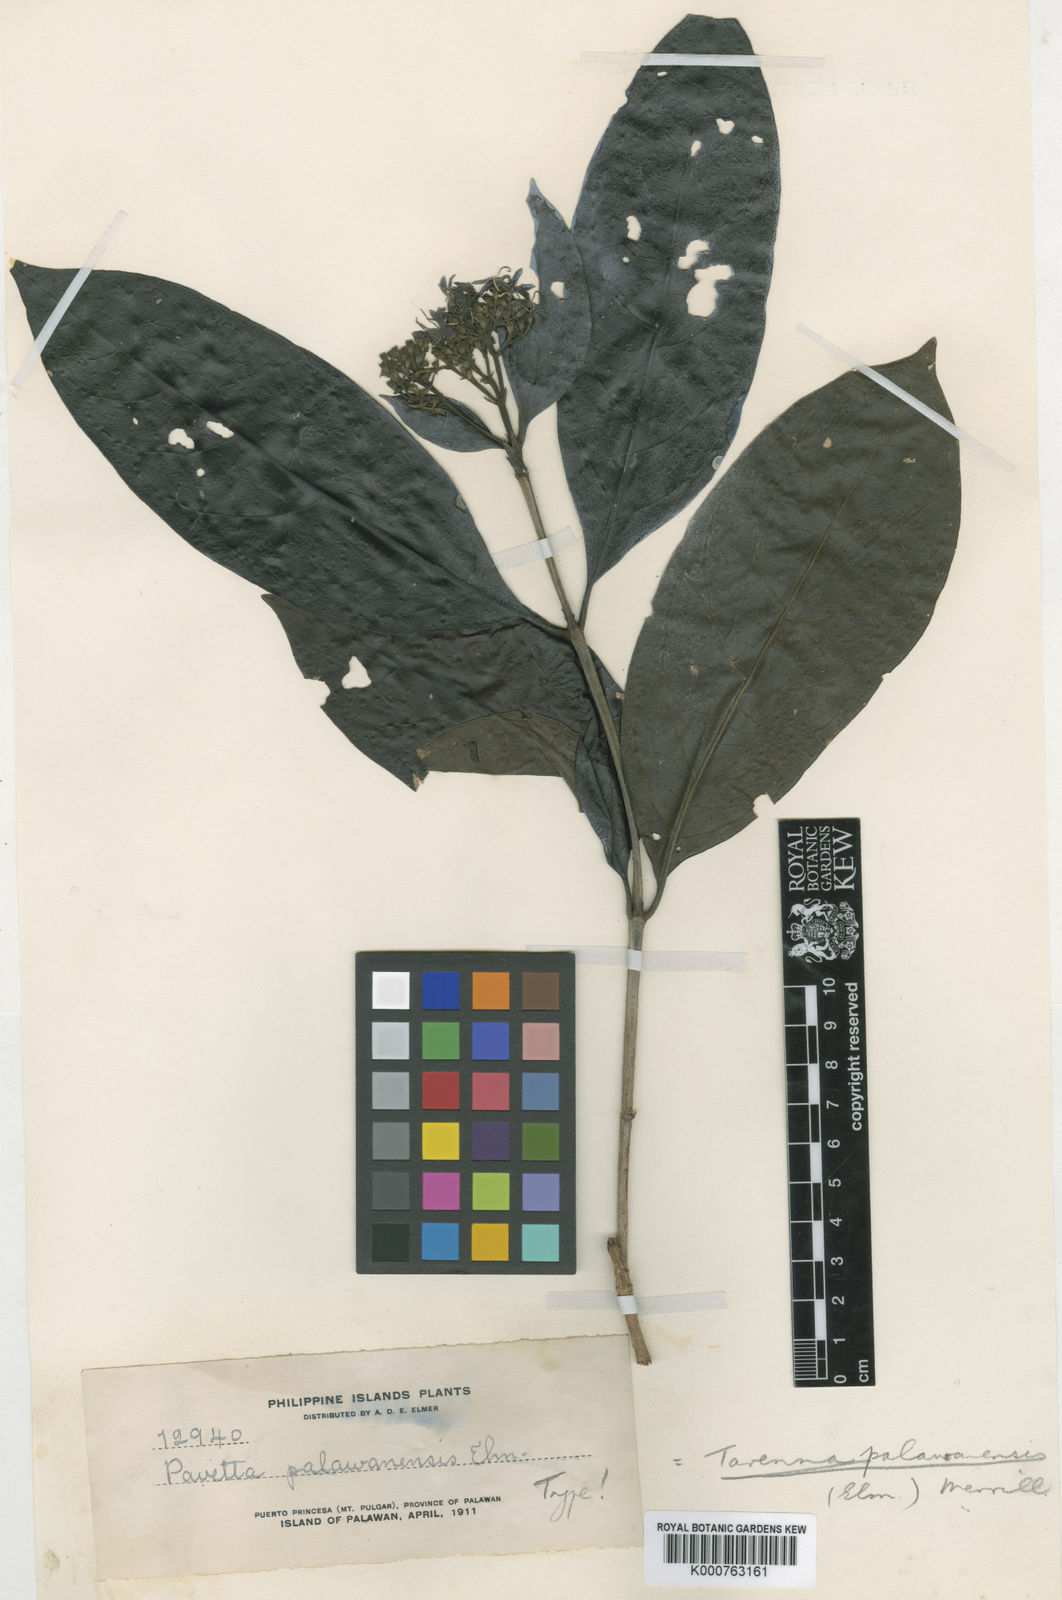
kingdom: Plantae
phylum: Tracheophyta
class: Magnoliopsida
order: Gentianales
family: Rubiaceae
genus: Tarenna
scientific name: Tarenna palawanensis
